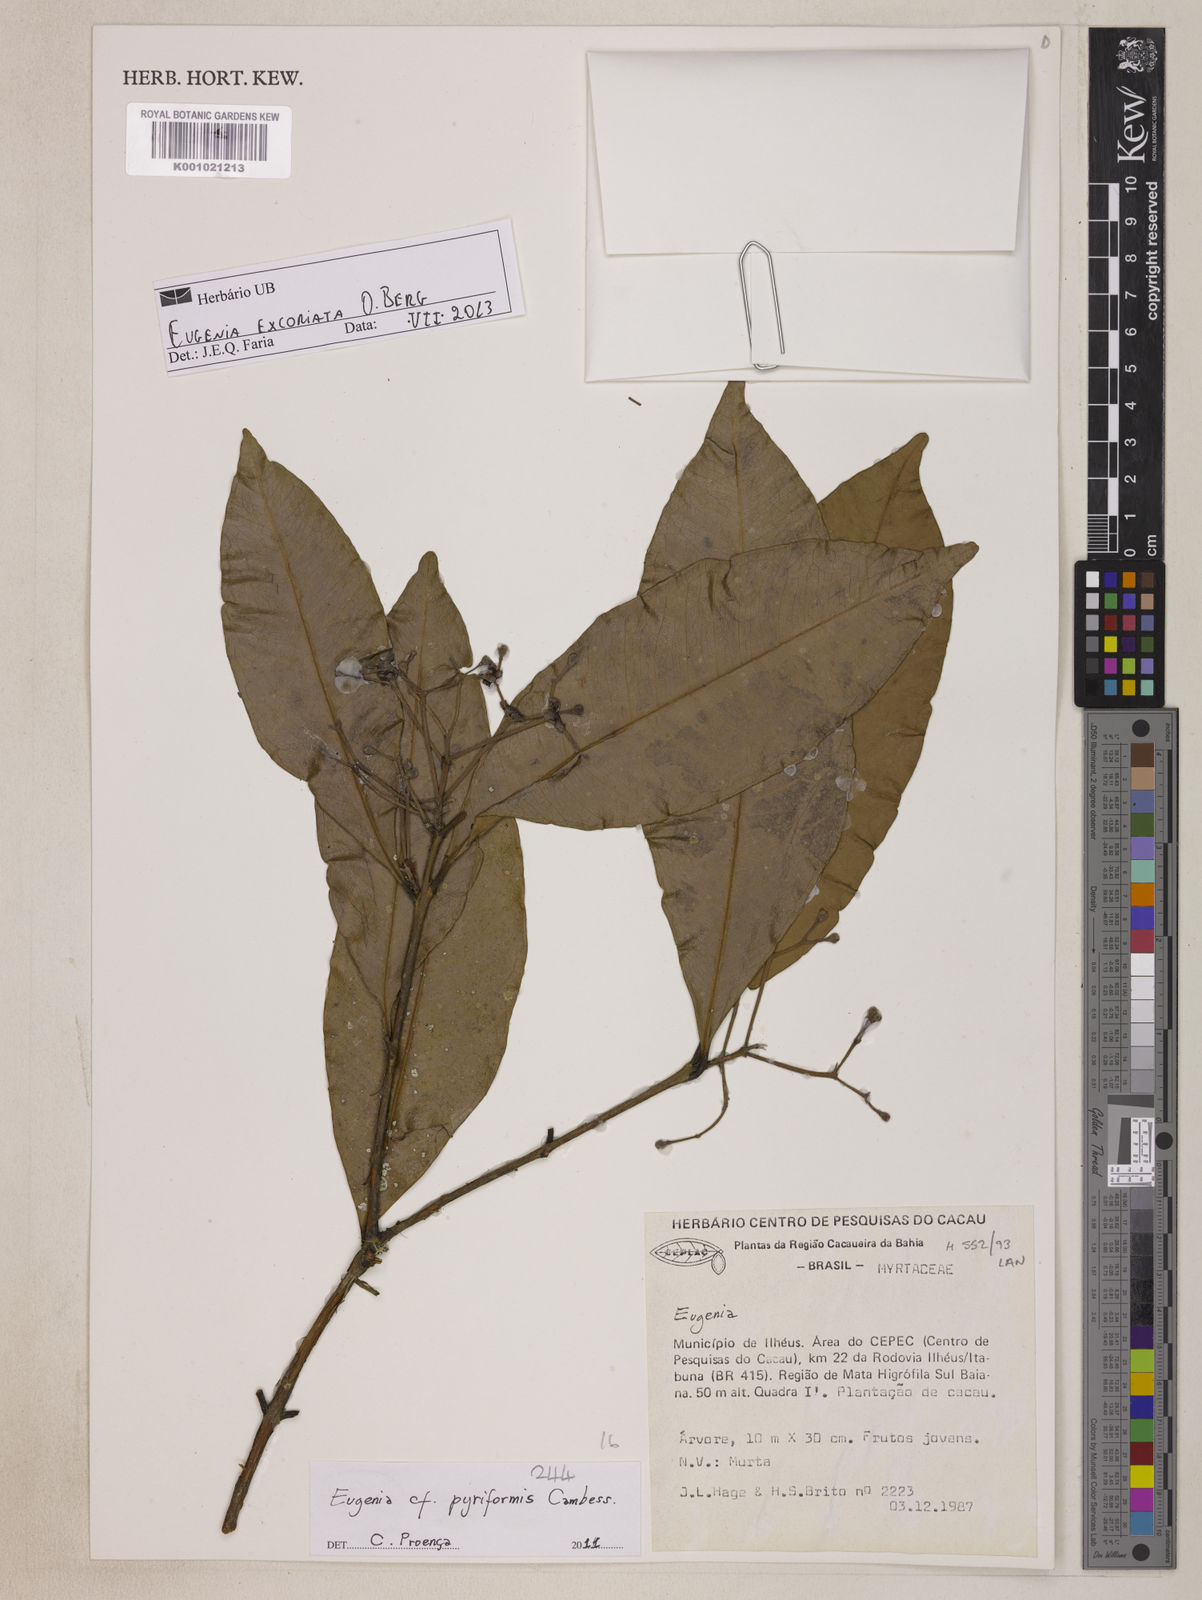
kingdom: Plantae
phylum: Tracheophyta
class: Magnoliopsida
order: Myrtales
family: Myrtaceae
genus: Eugenia
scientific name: Eugenia excoriata
